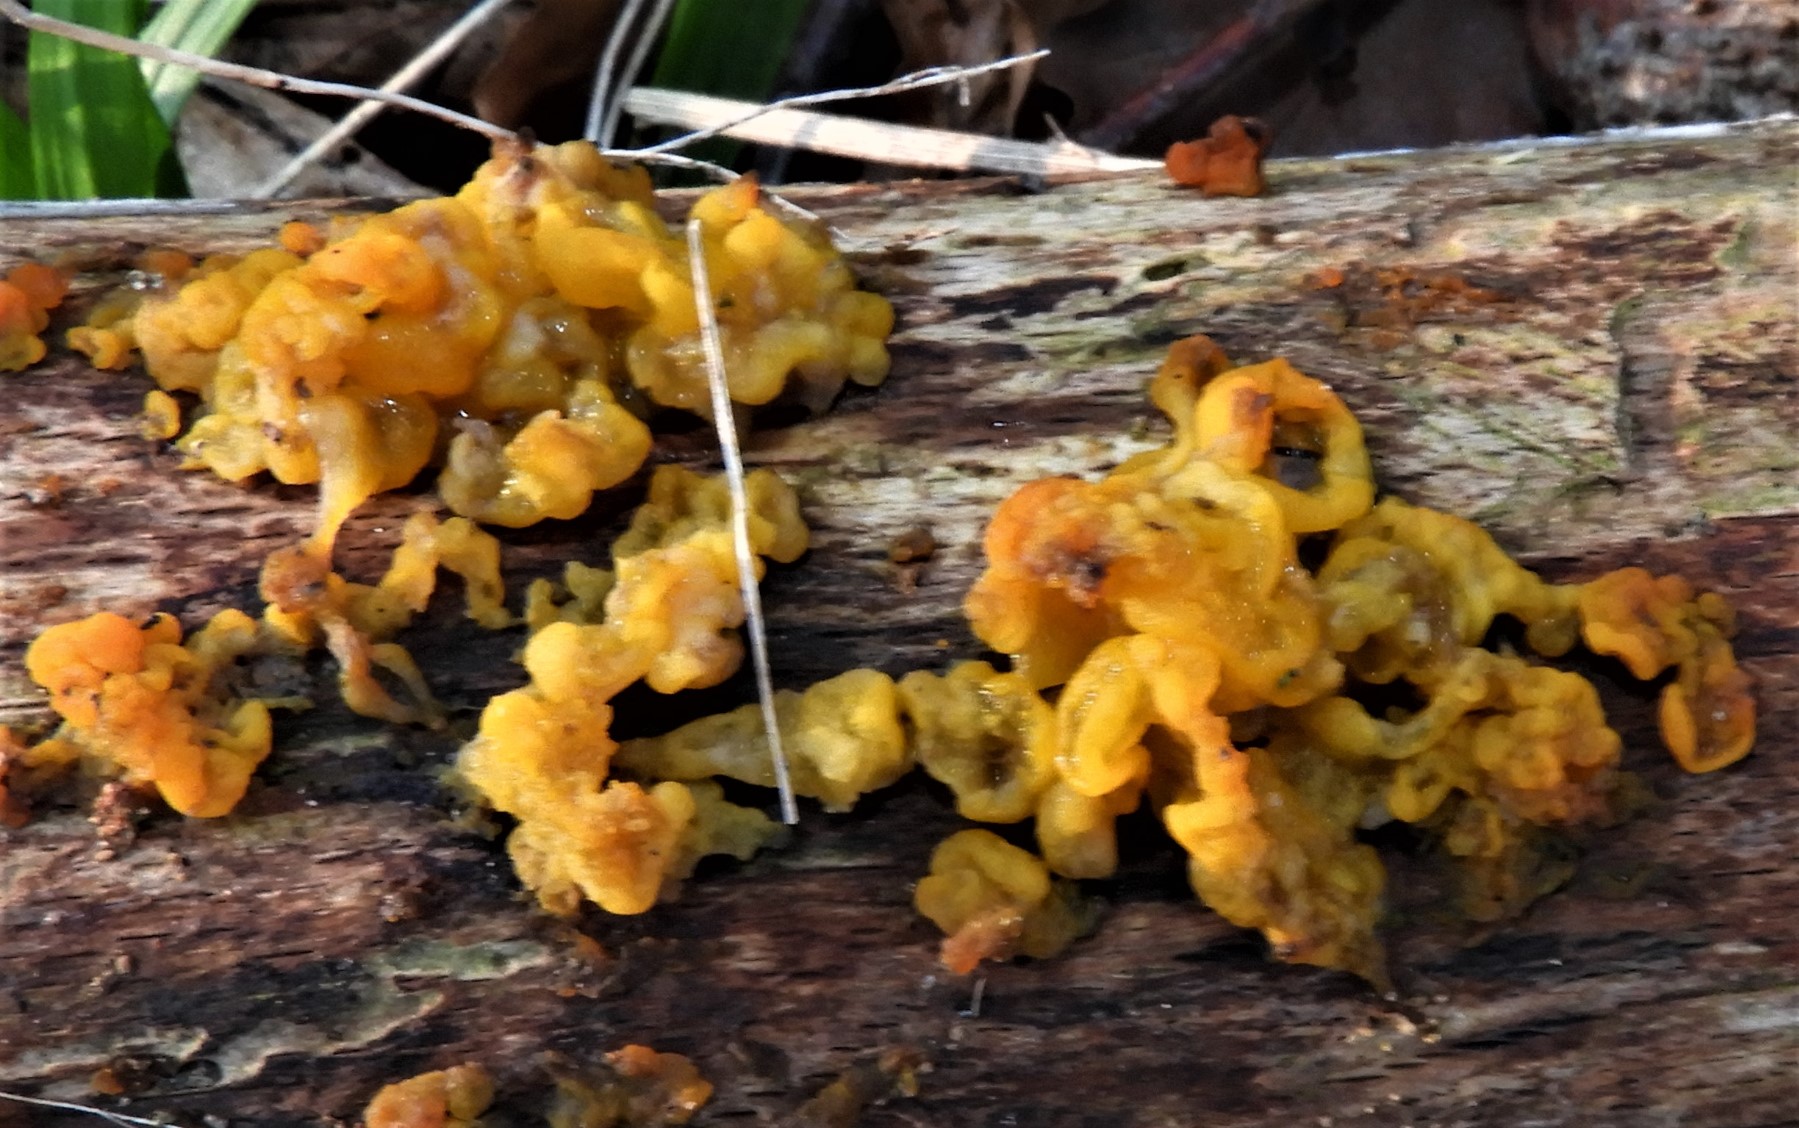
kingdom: Fungi
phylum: Basidiomycota
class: Tremellomycetes
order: Tremellales
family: Tremellaceae
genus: Tremella
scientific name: Tremella mesenterica
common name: gul bævresvamp
